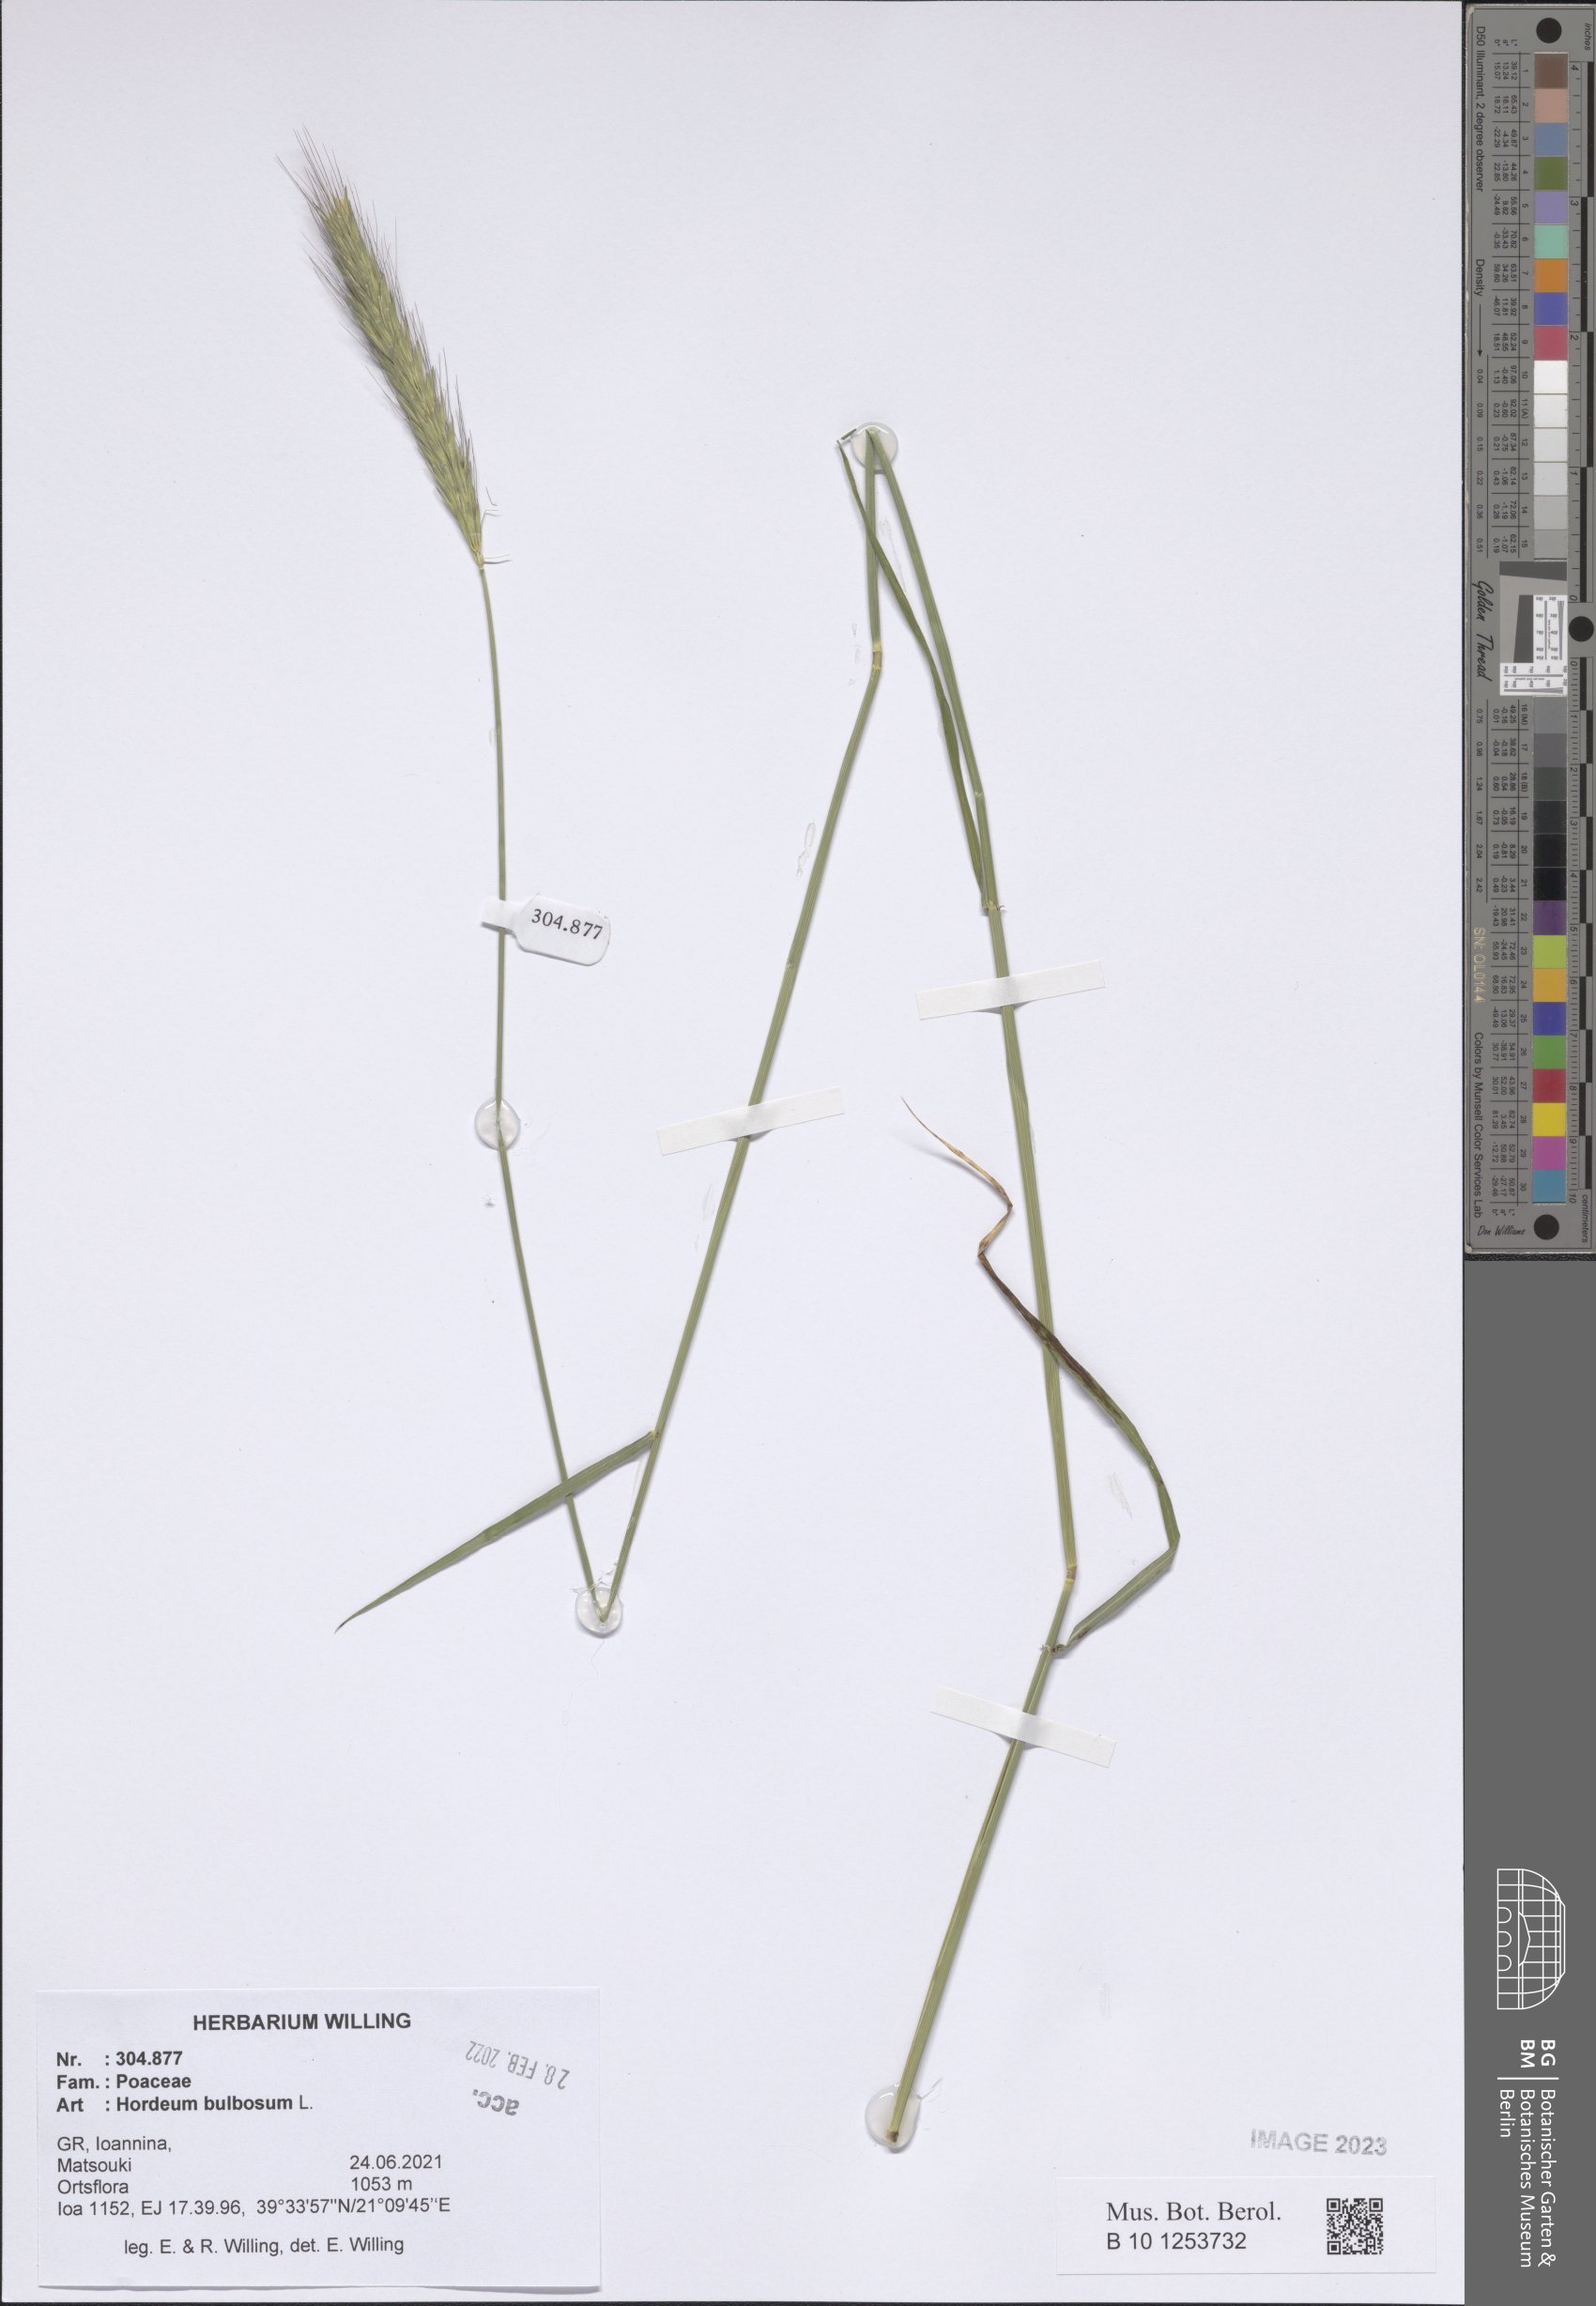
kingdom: Plantae
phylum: Tracheophyta
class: Liliopsida
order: Poales
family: Poaceae
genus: Hordeum
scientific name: Hordeum bulbosum
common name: Bulbous barley
